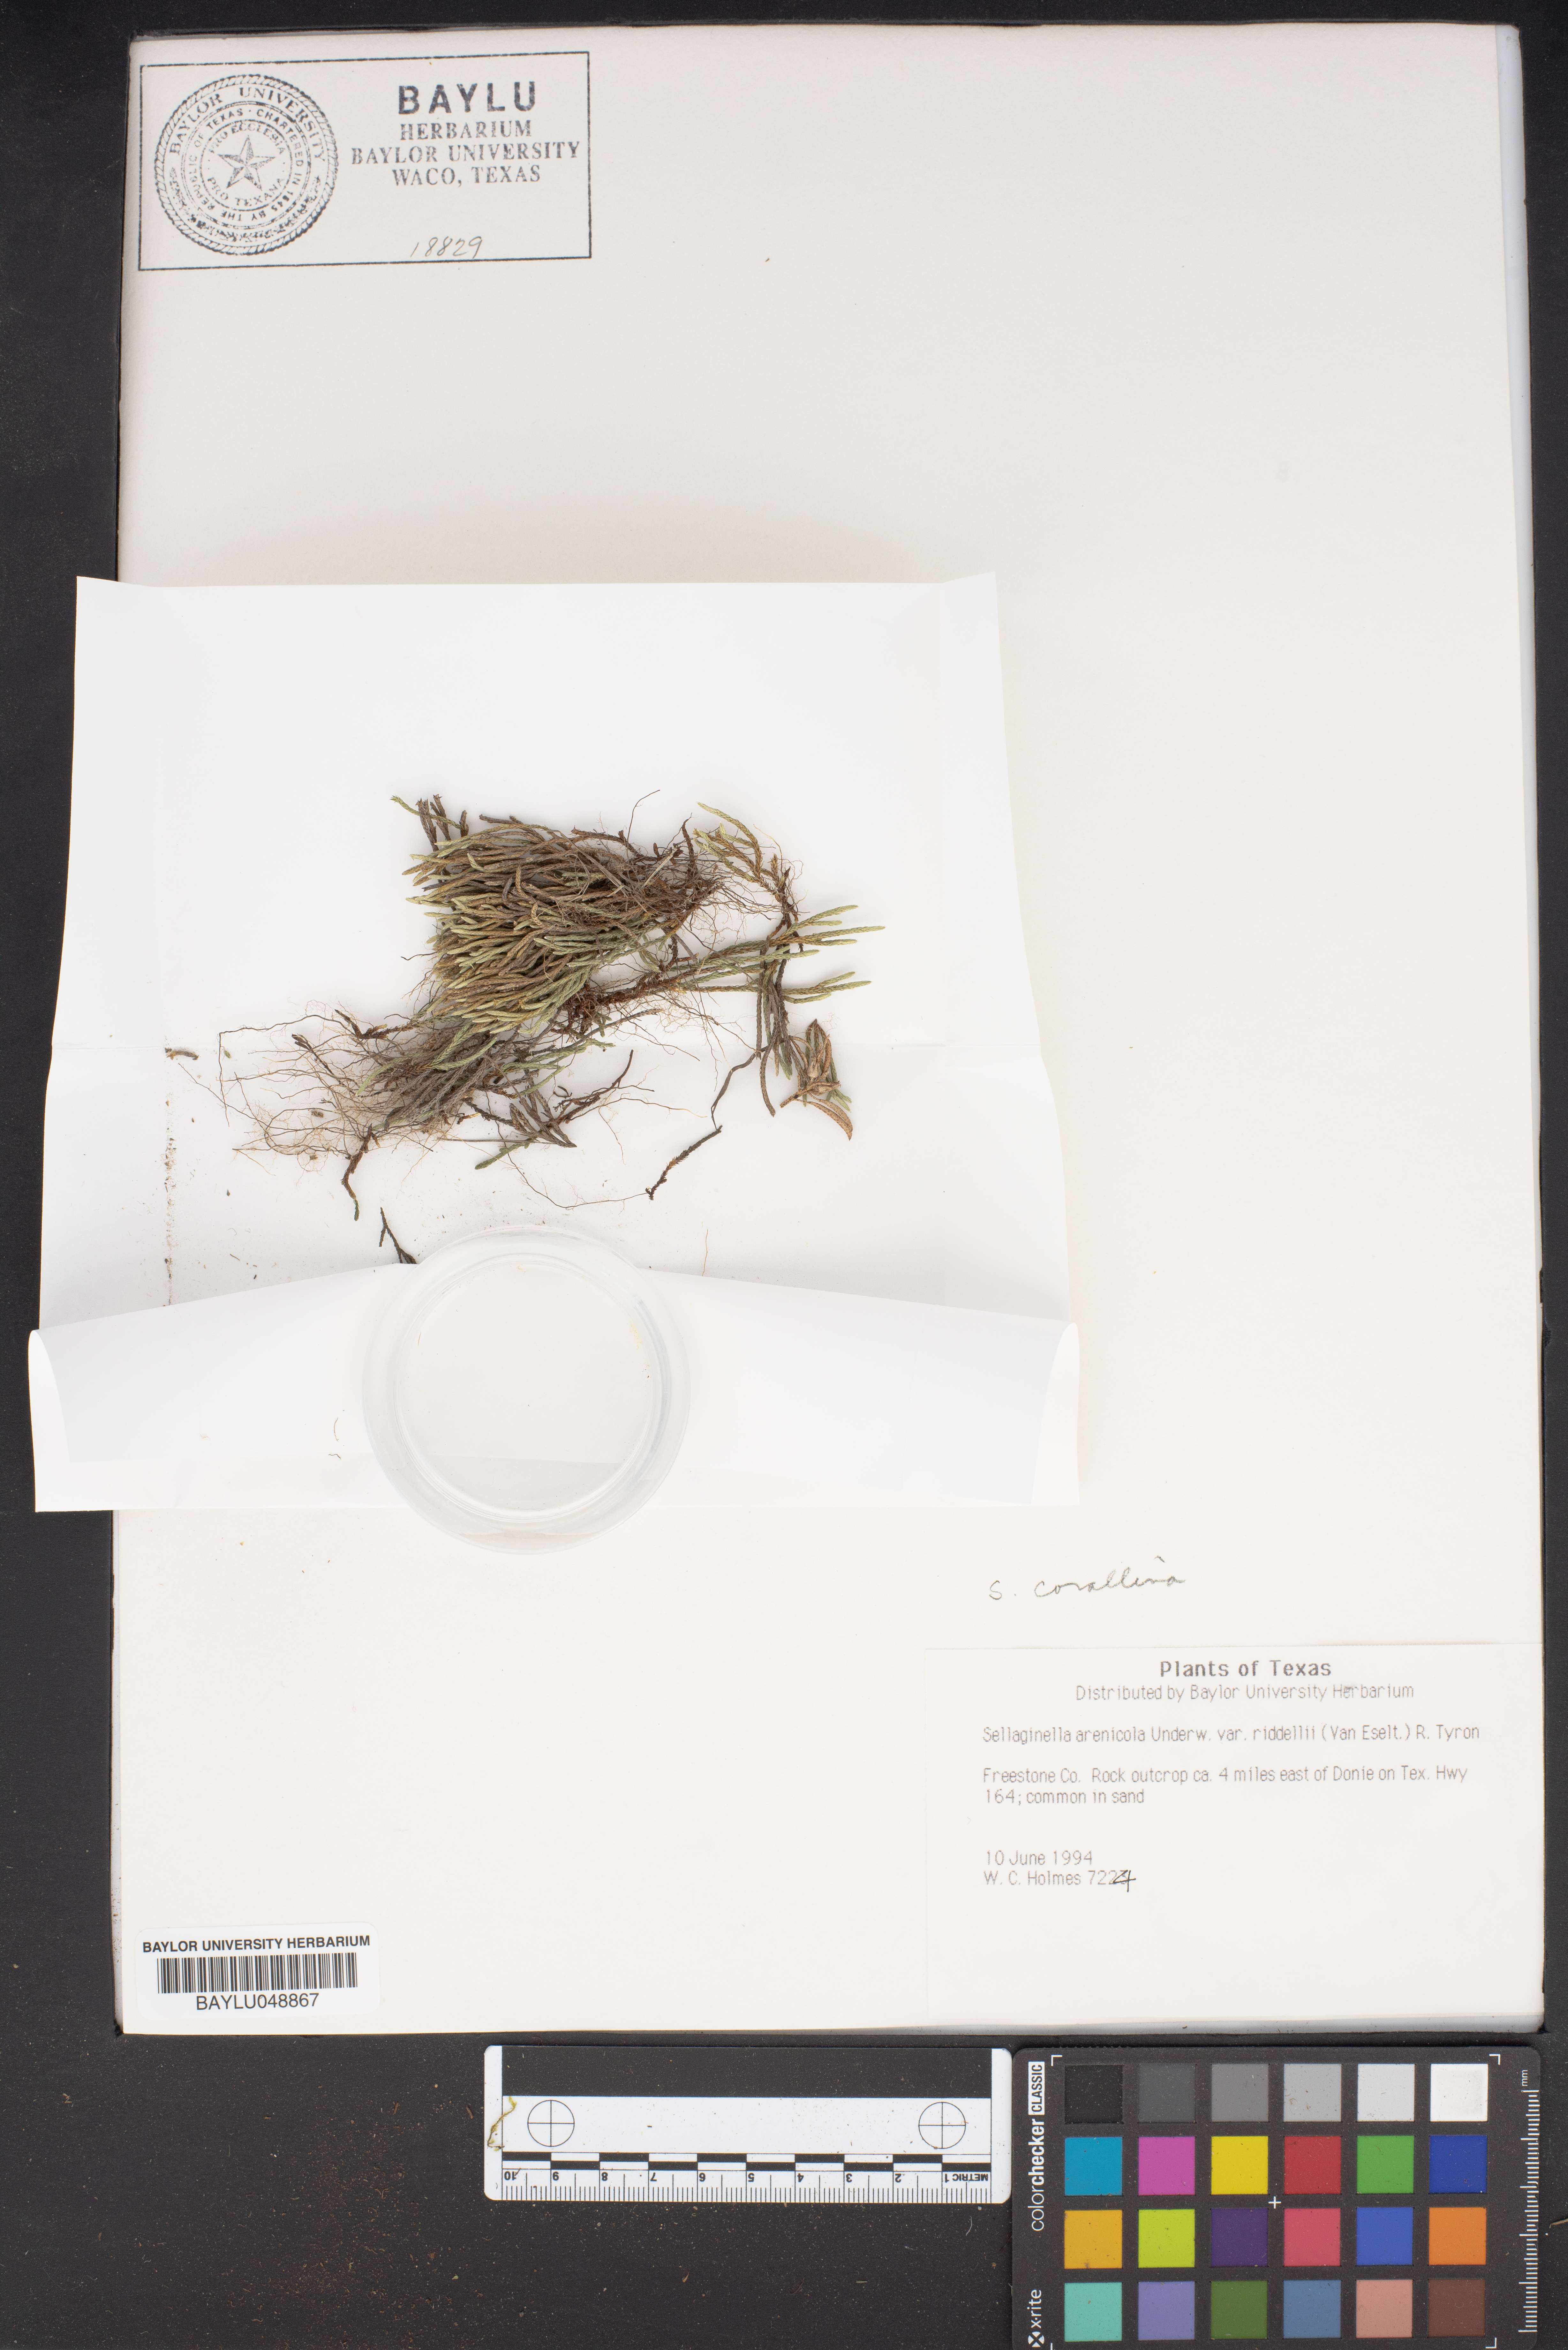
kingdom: Plantae
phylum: Tracheophyta
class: Lycopodiopsida
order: Selaginellales
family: Selaginellaceae
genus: Selaginella
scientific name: Selaginella corallina
